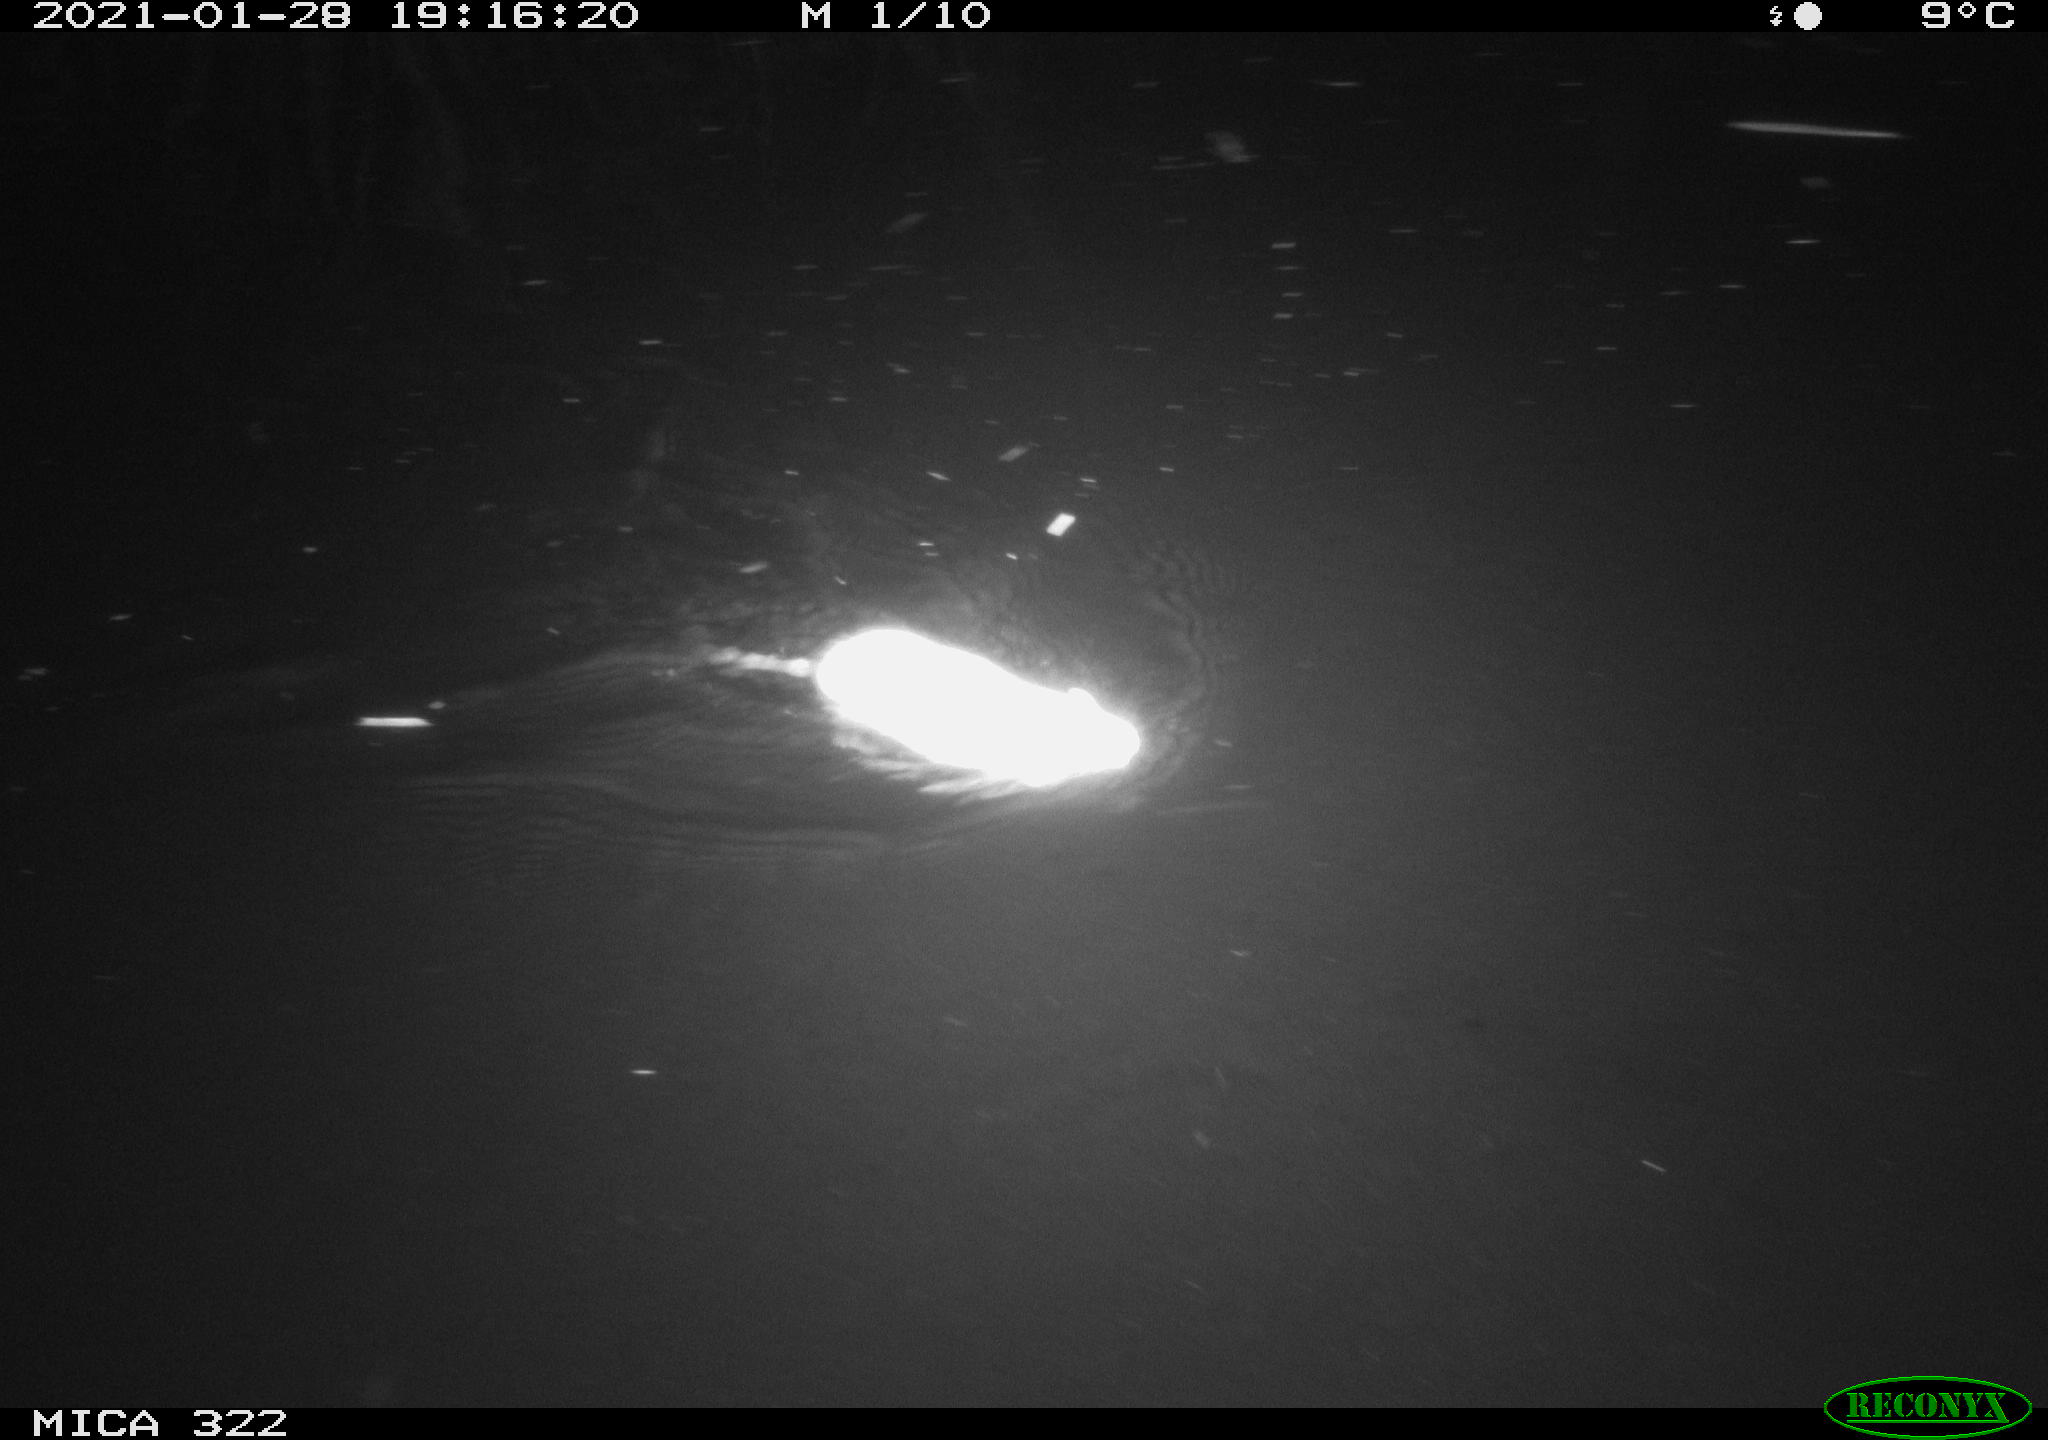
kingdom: Animalia
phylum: Chordata
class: Mammalia
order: Rodentia
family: Muridae
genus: Rattus
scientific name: Rattus norvegicus
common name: Brown rat
